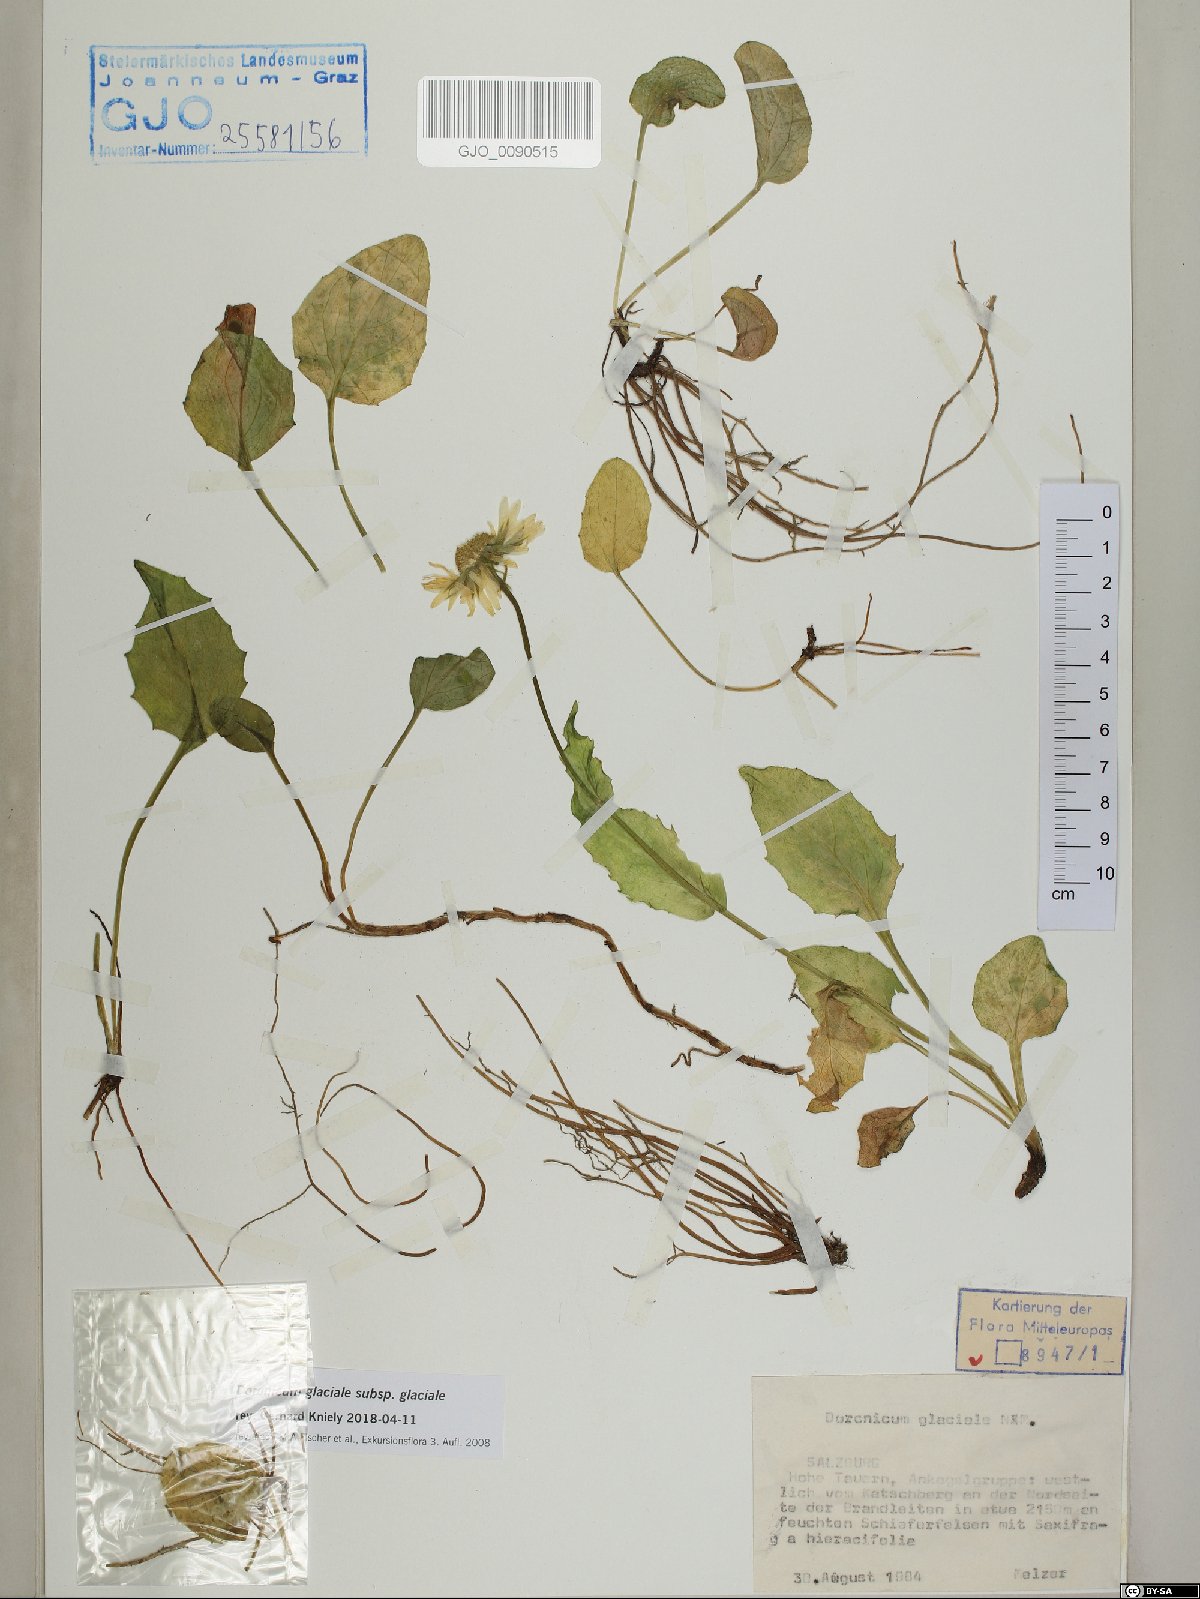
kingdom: Plantae
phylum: Tracheophyta
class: Magnoliopsida
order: Asterales
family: Asteraceae
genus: Doronicum
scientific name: Doronicum glaciale
